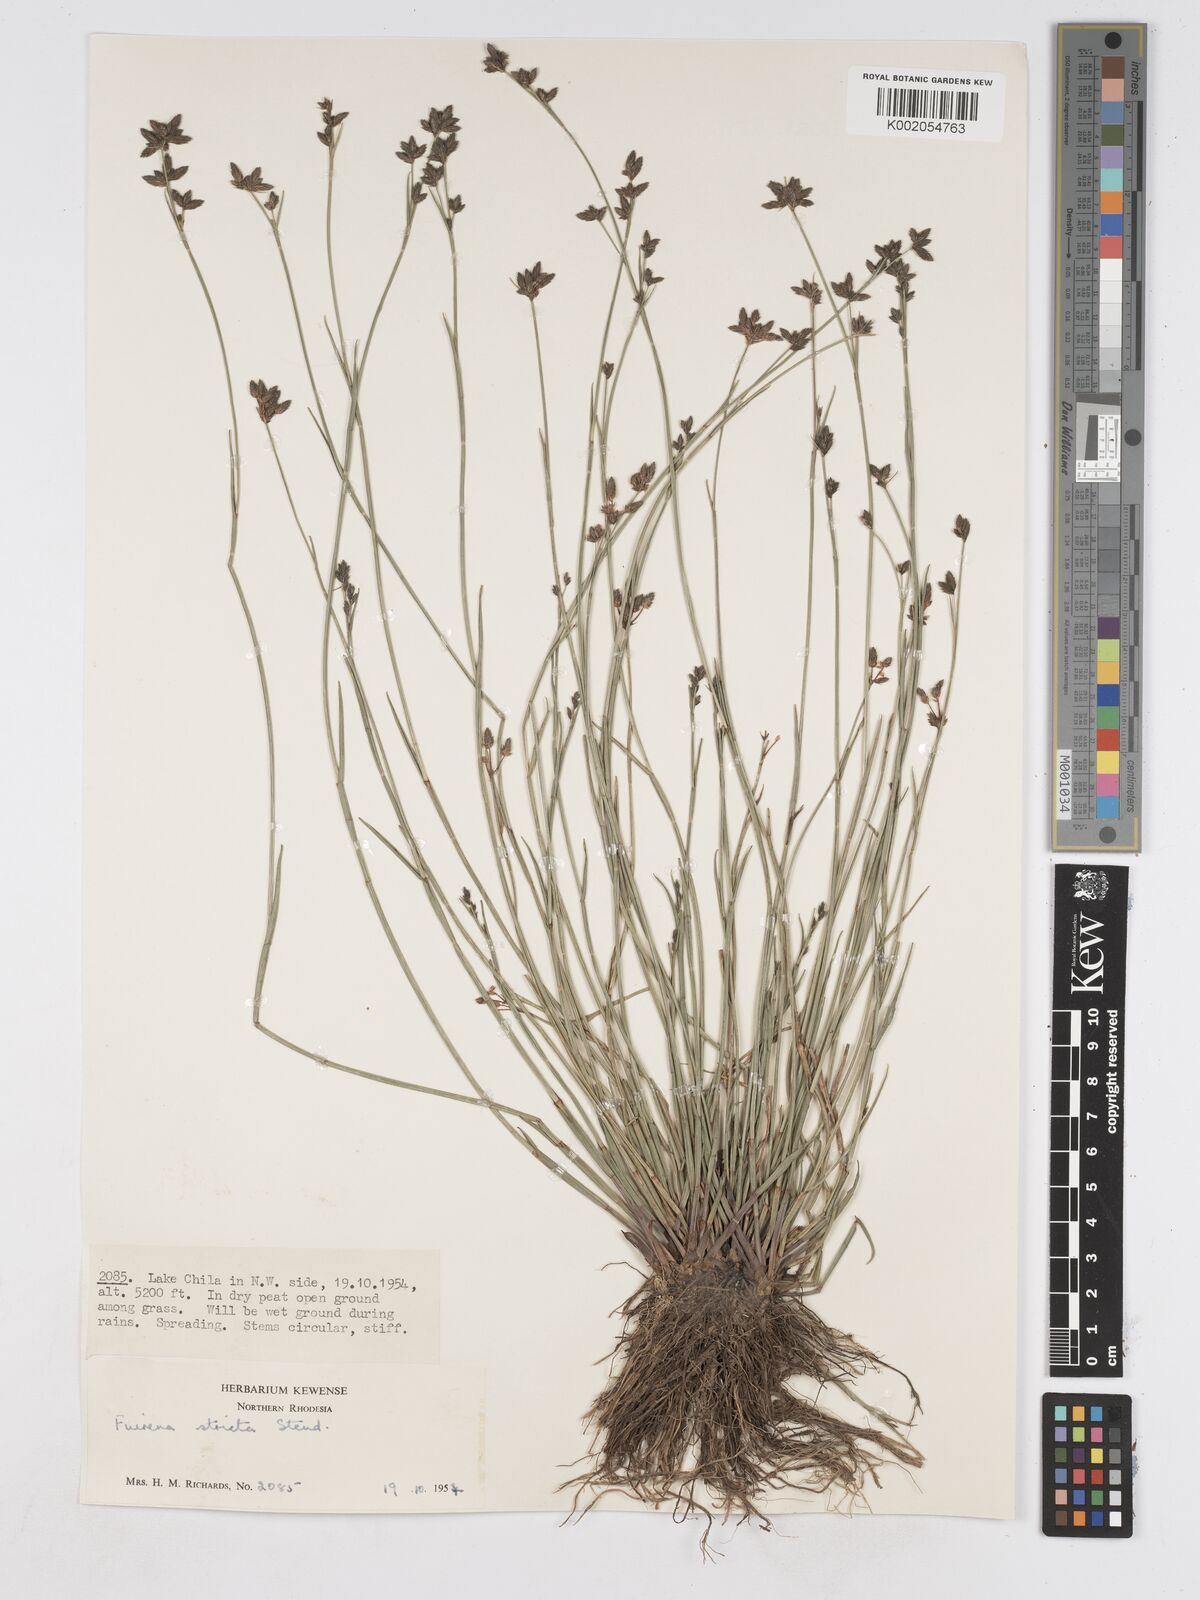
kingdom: Plantae
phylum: Tracheophyta
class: Liliopsida
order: Poales
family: Cyperaceae
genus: Fuirena
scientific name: Fuirena stricta
